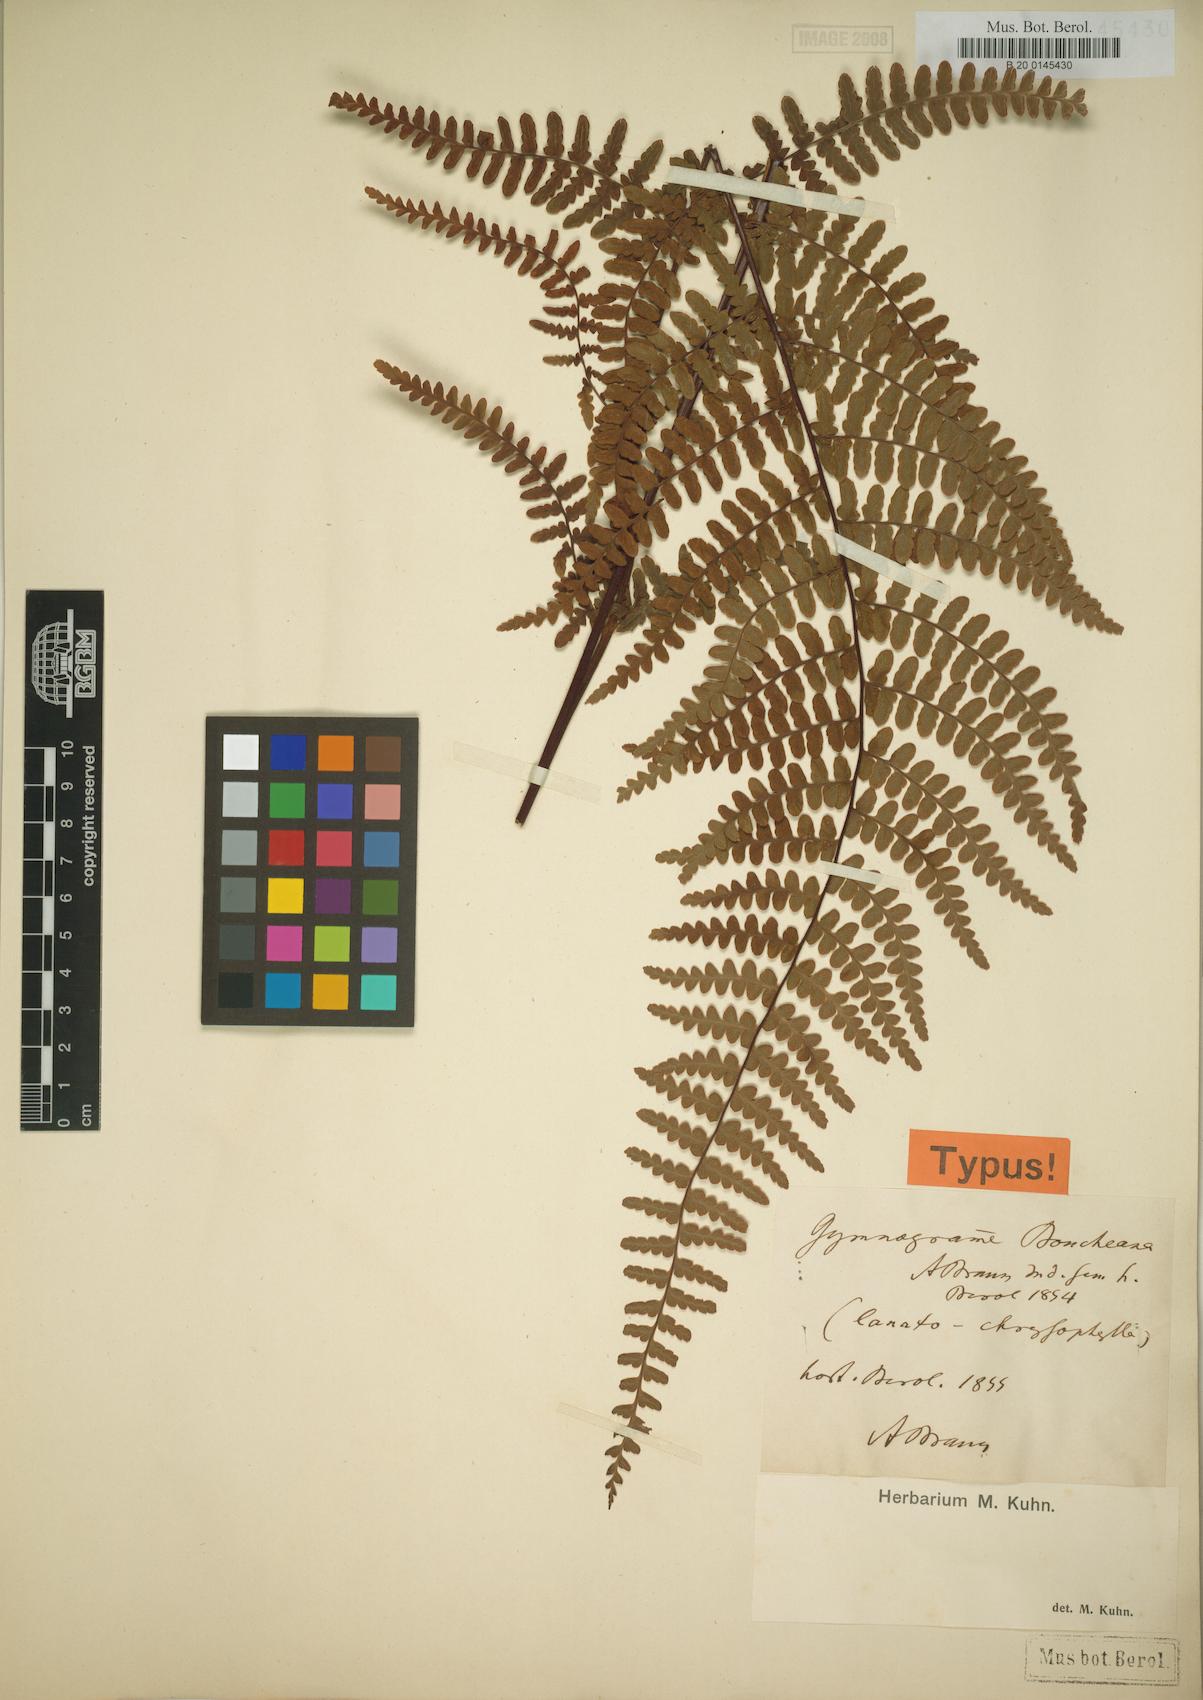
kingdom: Plantae
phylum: Tracheophyta
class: Polypodiopsida
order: Polypodiales
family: Adiantaceae
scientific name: Adiantaceae
